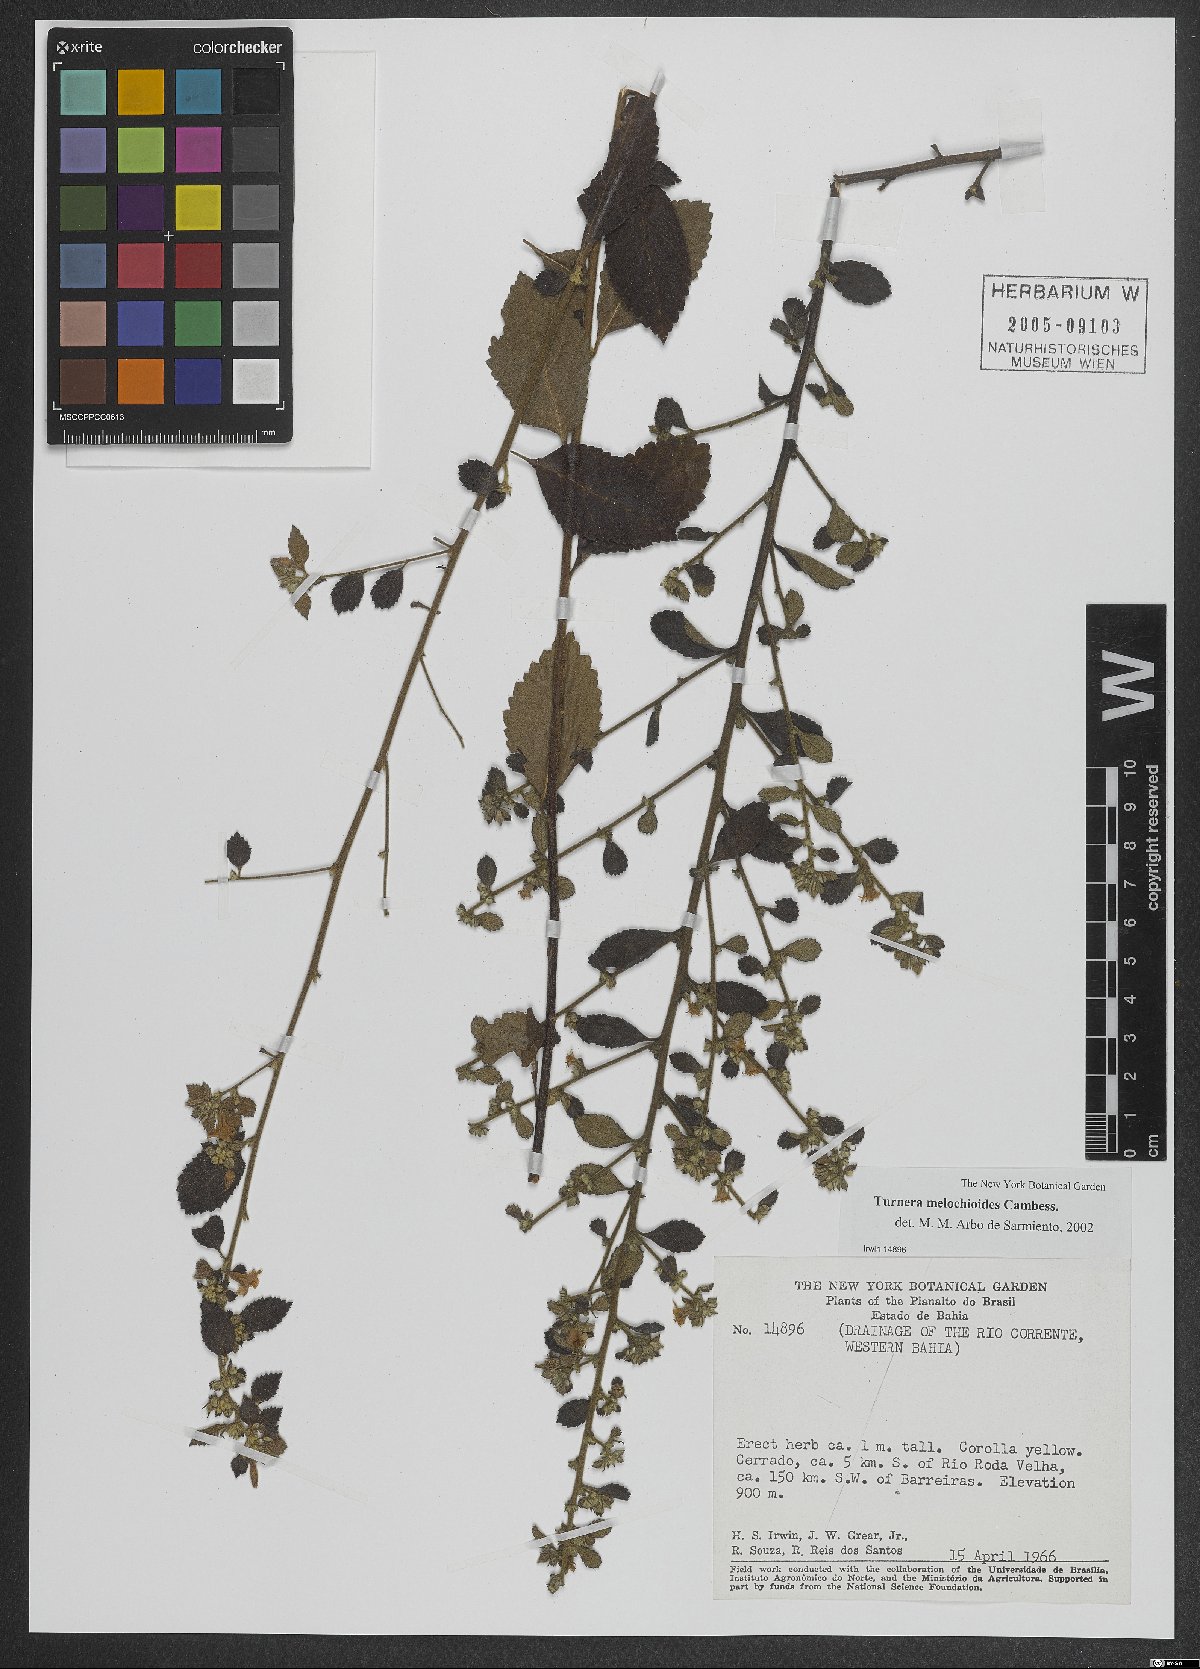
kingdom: Plantae
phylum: Tracheophyta
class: Magnoliopsida
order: Malpighiales
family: Turneraceae
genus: Turnera
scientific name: Turnera melochioides
